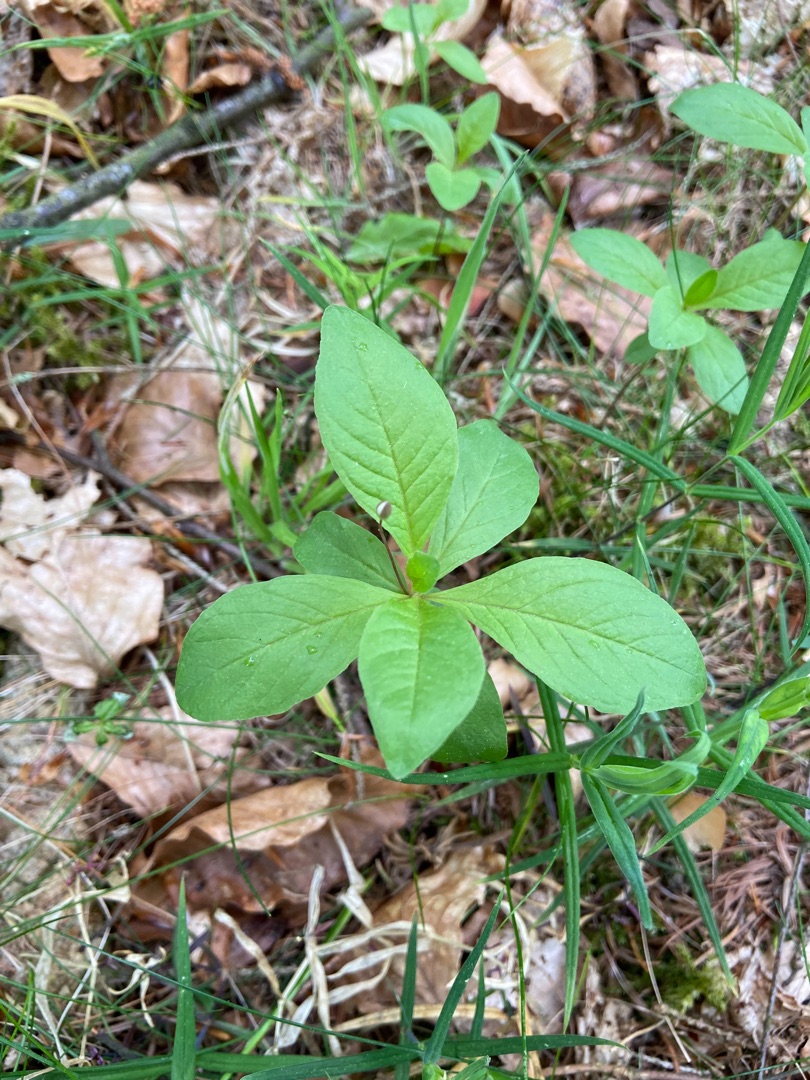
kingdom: Plantae
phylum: Tracheophyta
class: Magnoliopsida
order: Ericales
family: Primulaceae
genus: Lysimachia
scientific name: Lysimachia europaea
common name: Skovstjerne
